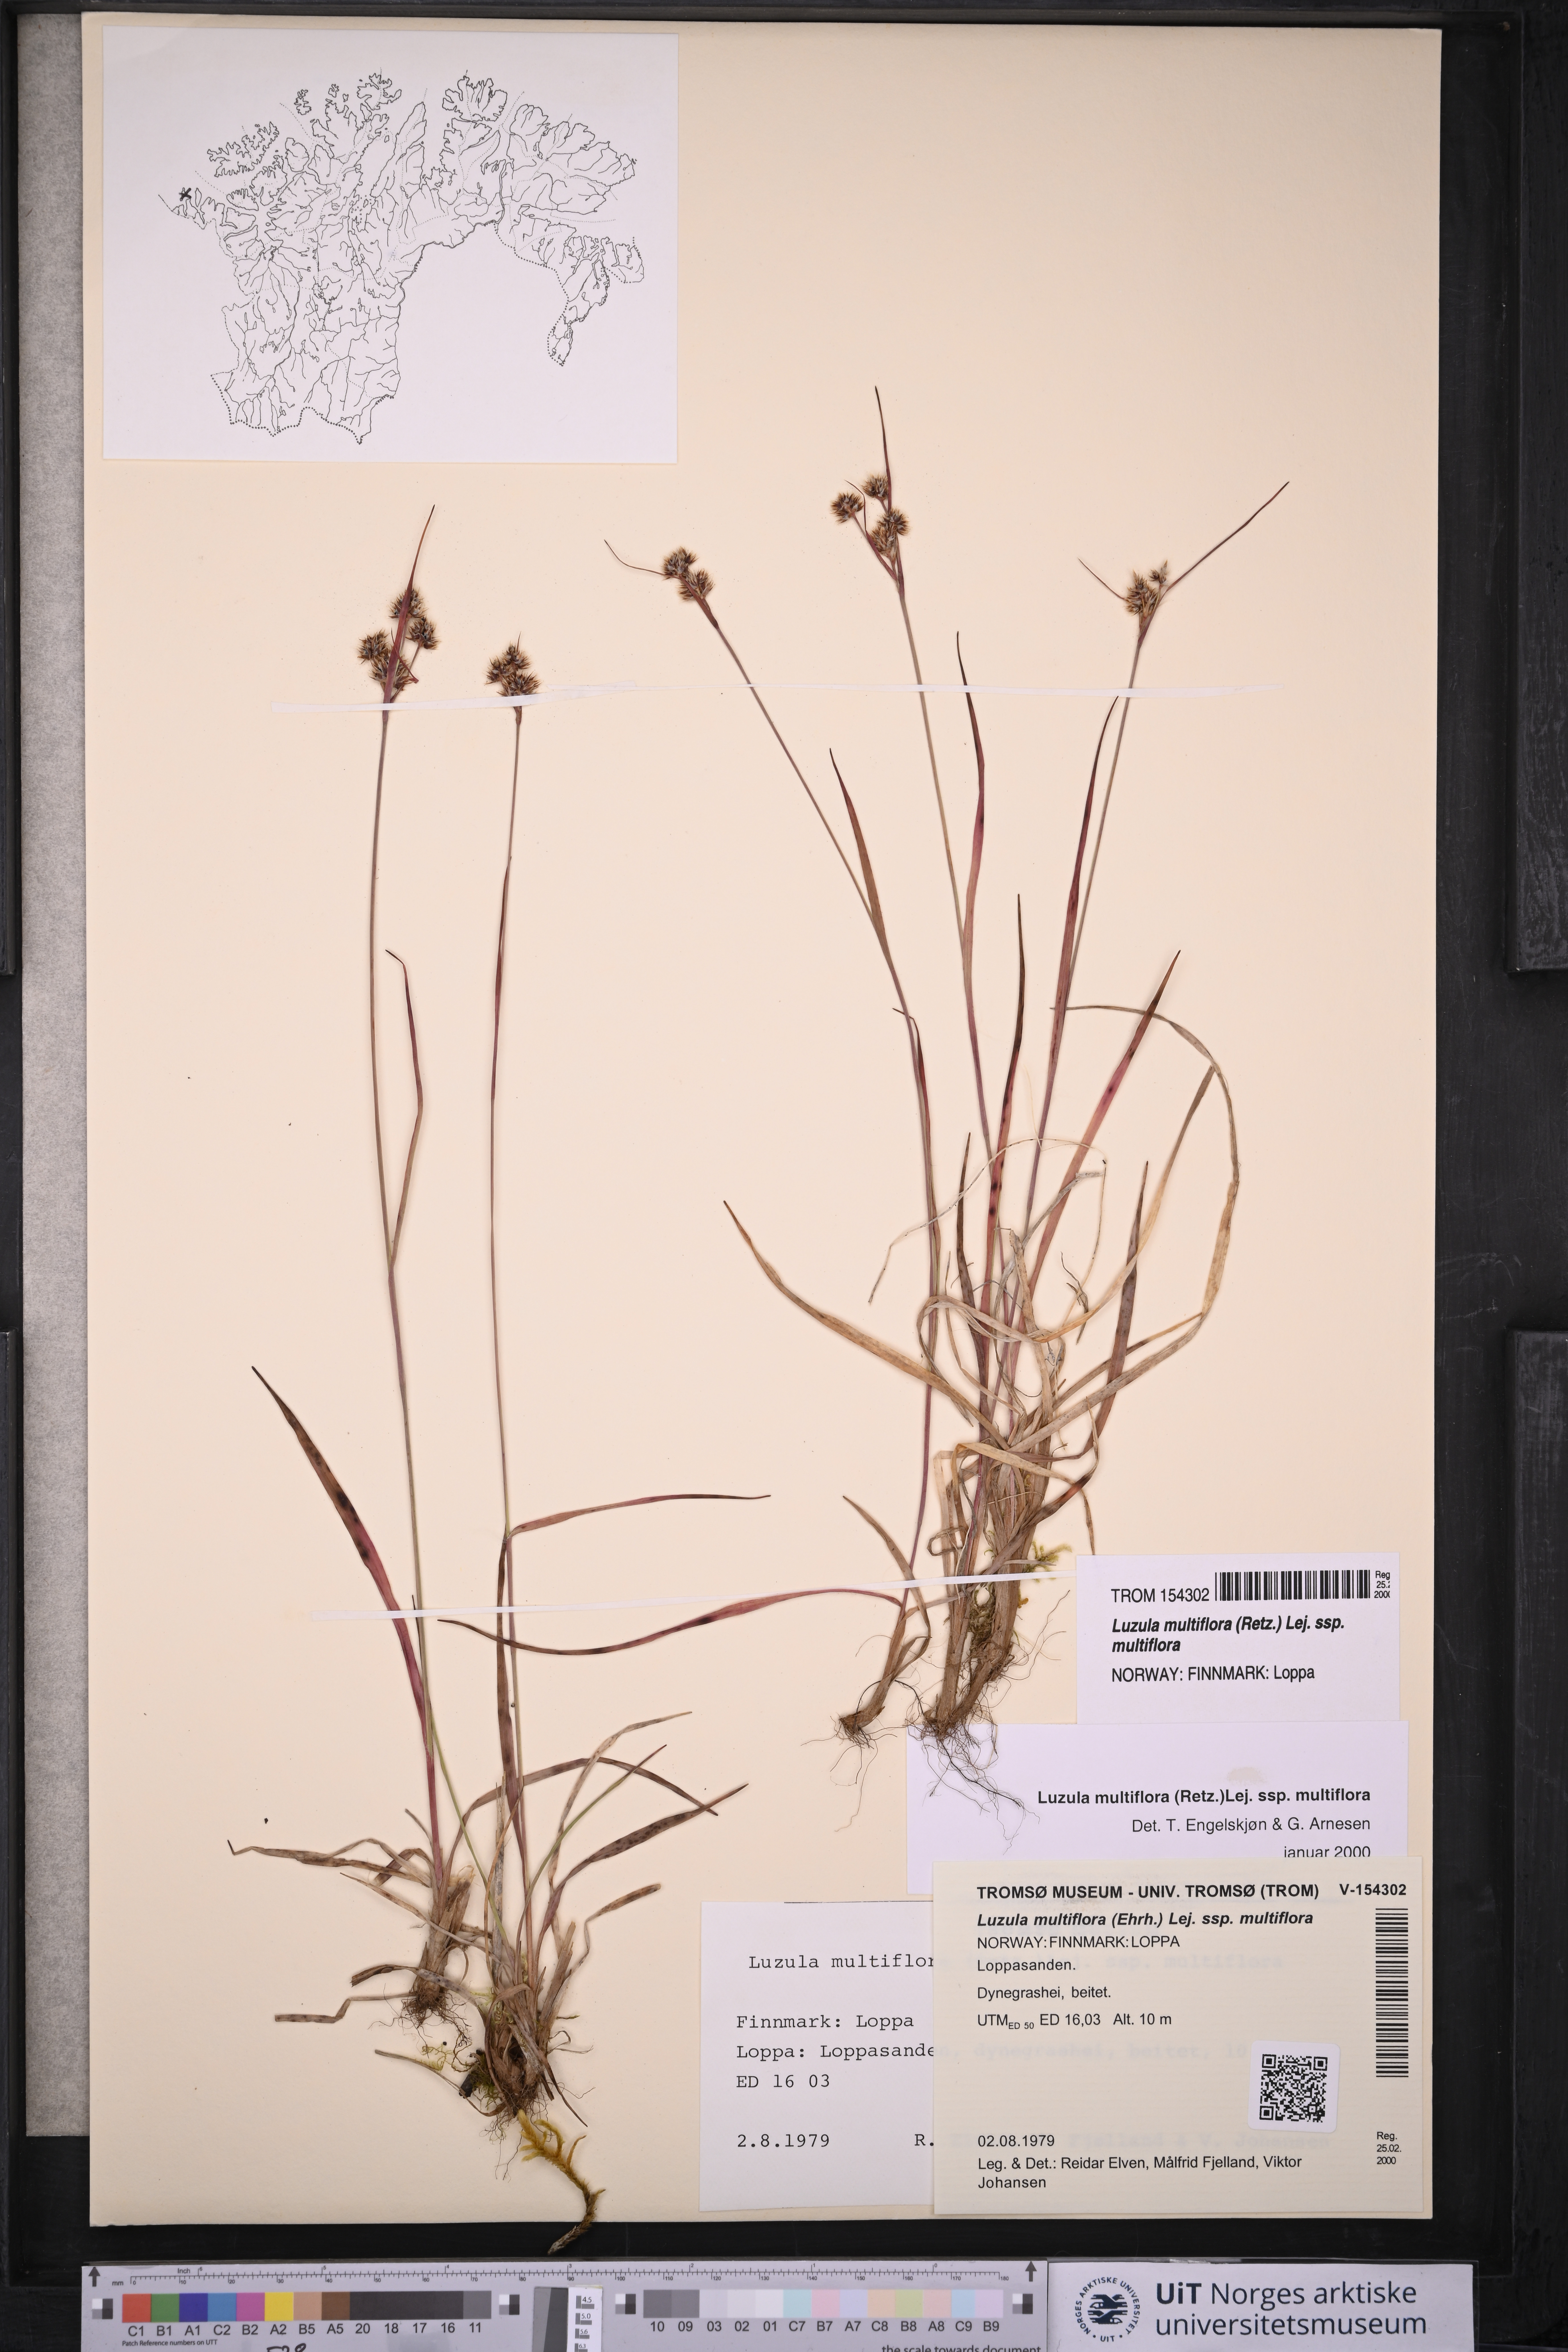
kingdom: Plantae
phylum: Tracheophyta
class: Liliopsida
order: Poales
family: Juncaceae
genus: Luzula
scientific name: Luzula multiflora
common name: Heath wood-rush
